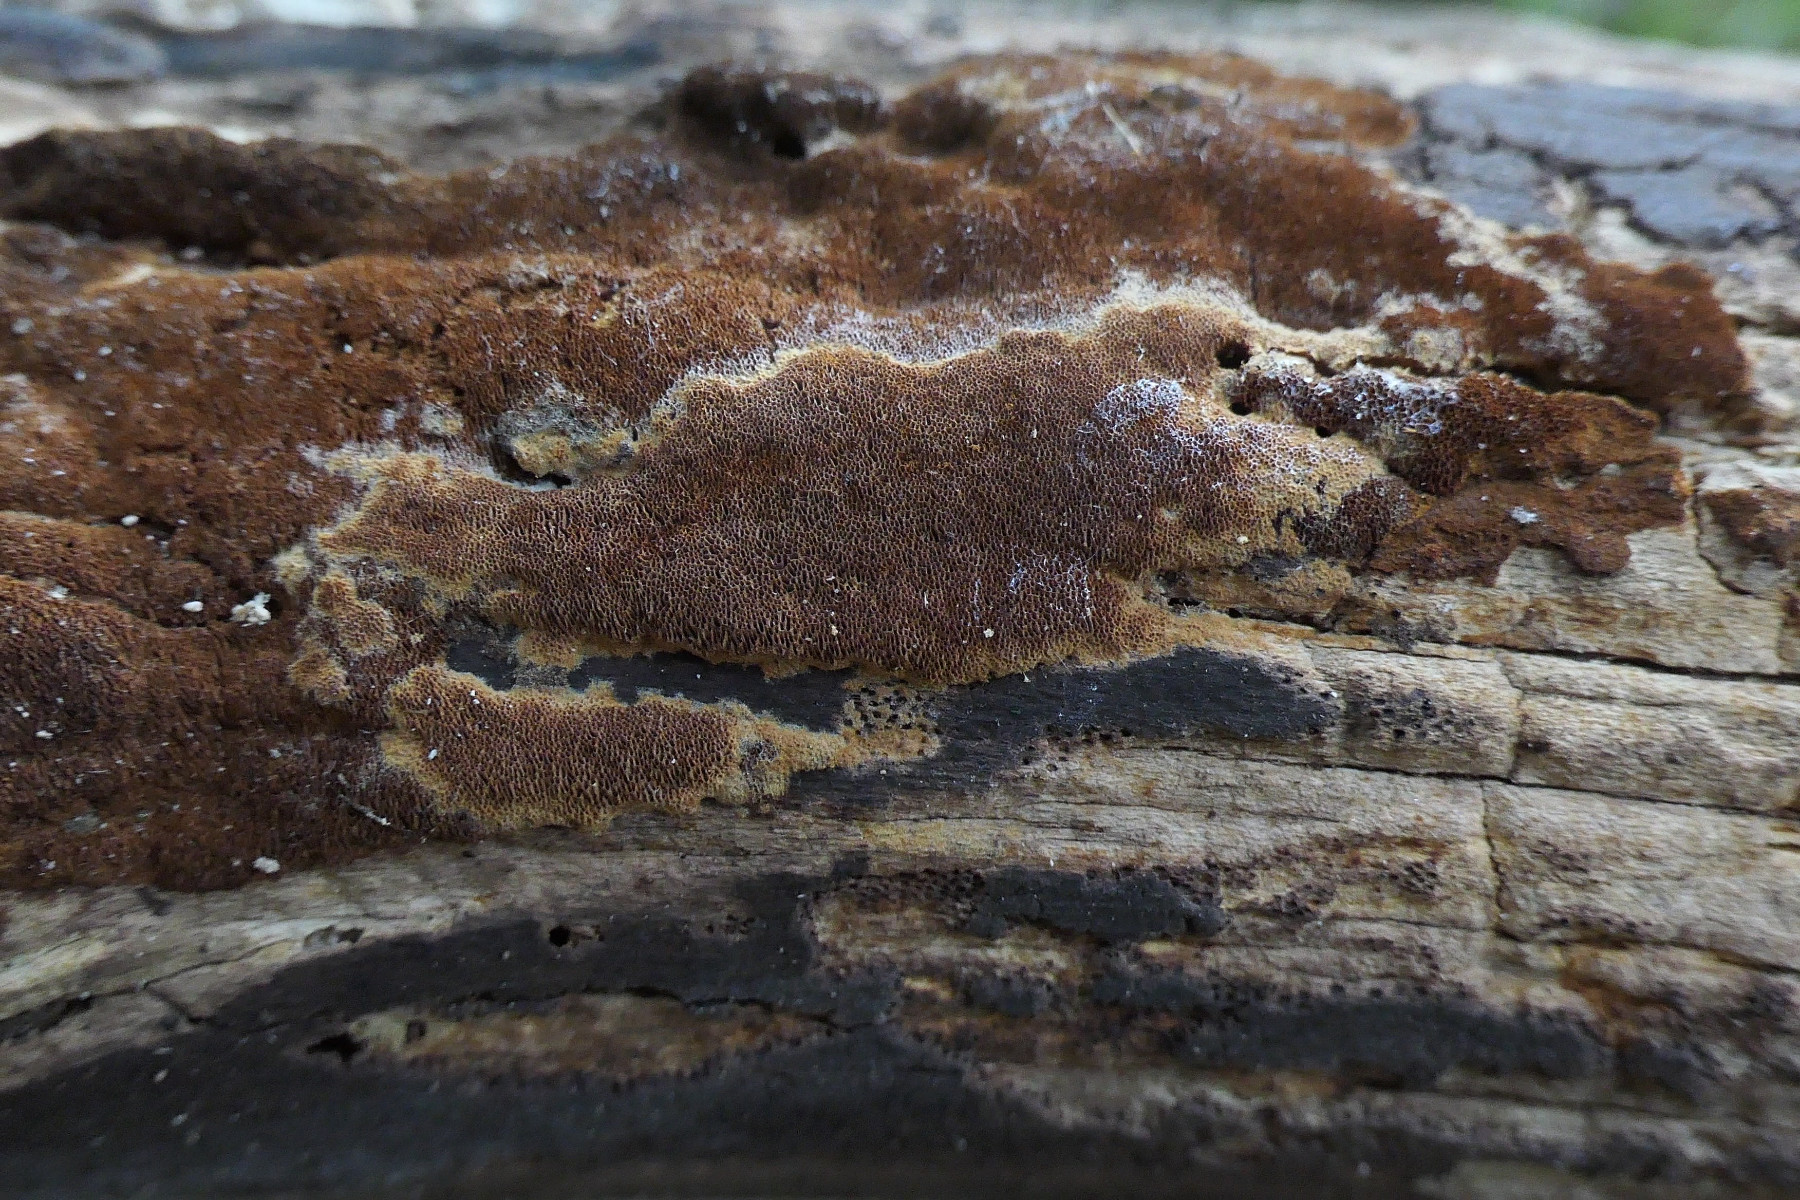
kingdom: Fungi
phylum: Basidiomycota
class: Agaricomycetes
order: Hymenochaetales
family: Hymenochaetaceae
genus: Fuscoporia
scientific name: Fuscoporia ferruginosa
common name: rustbrun ildporesvamp
